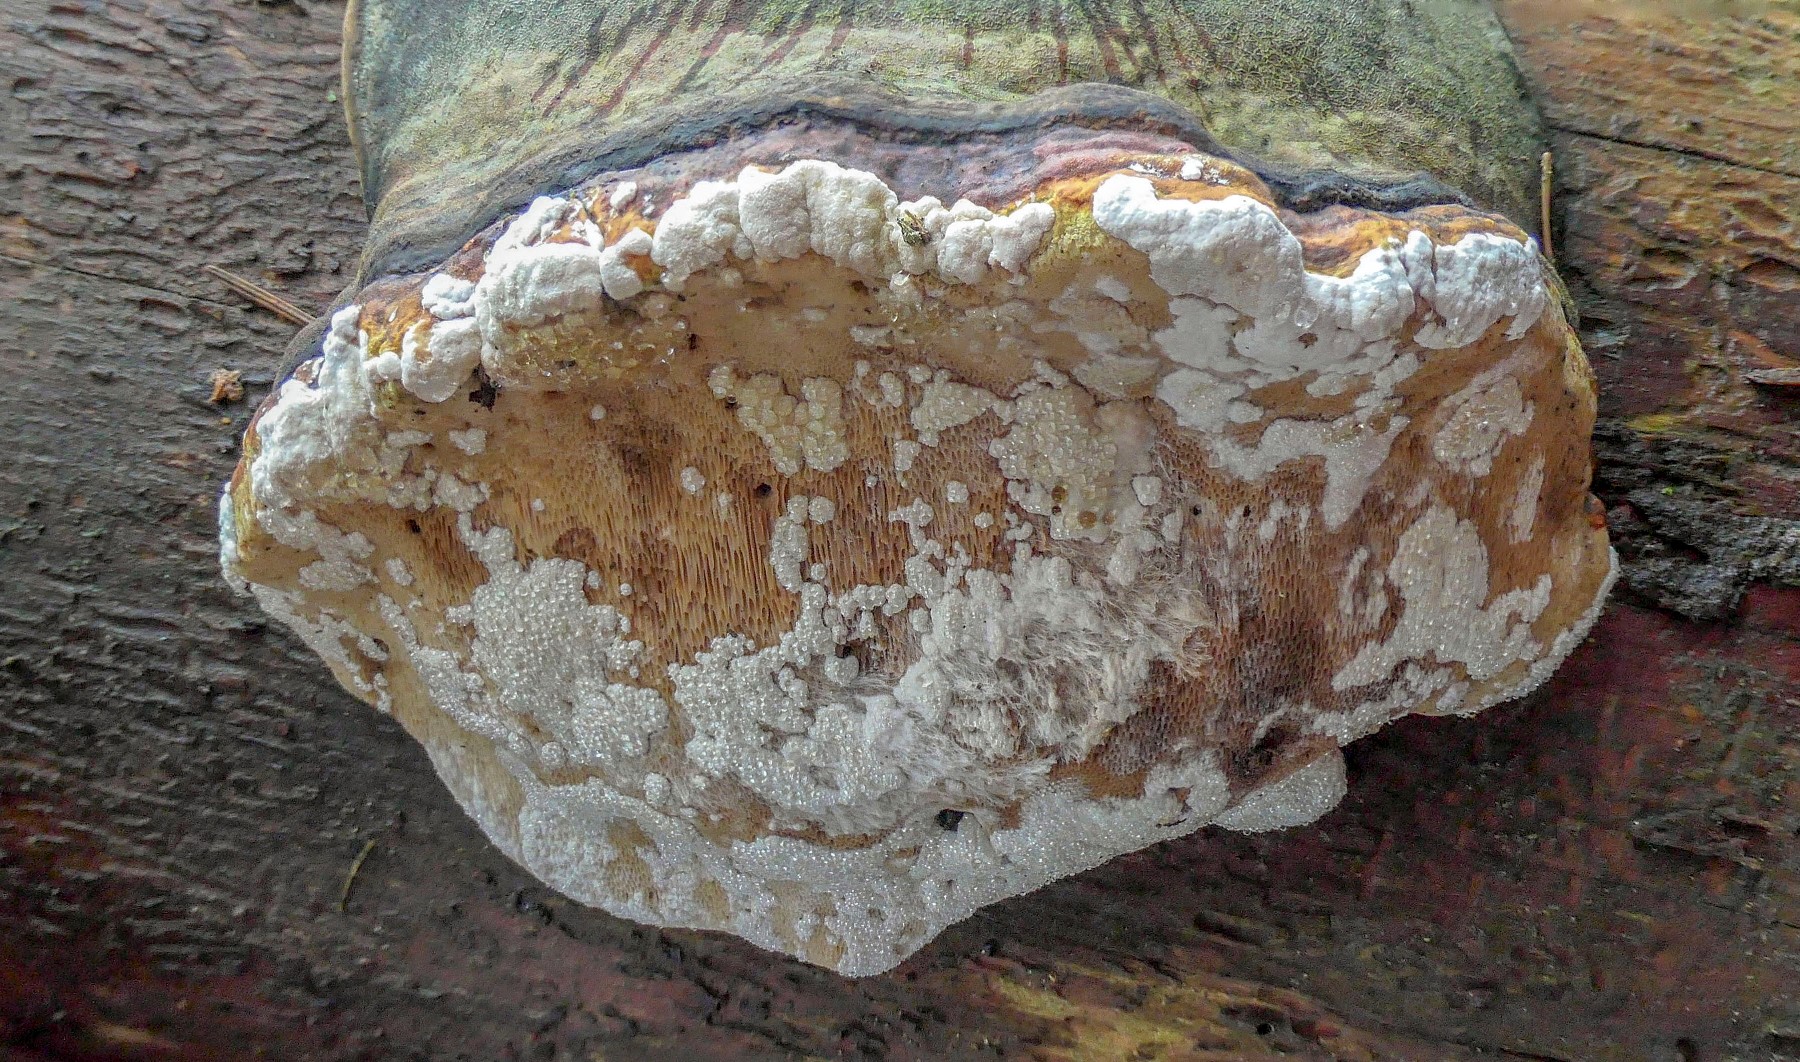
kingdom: Fungi
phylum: Ascomycota
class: Sordariomycetes
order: Hypocreales
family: Hypocreaceae
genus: Trichoderma
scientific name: Trichoderma pulvinatum
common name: snyltende kødkerne
